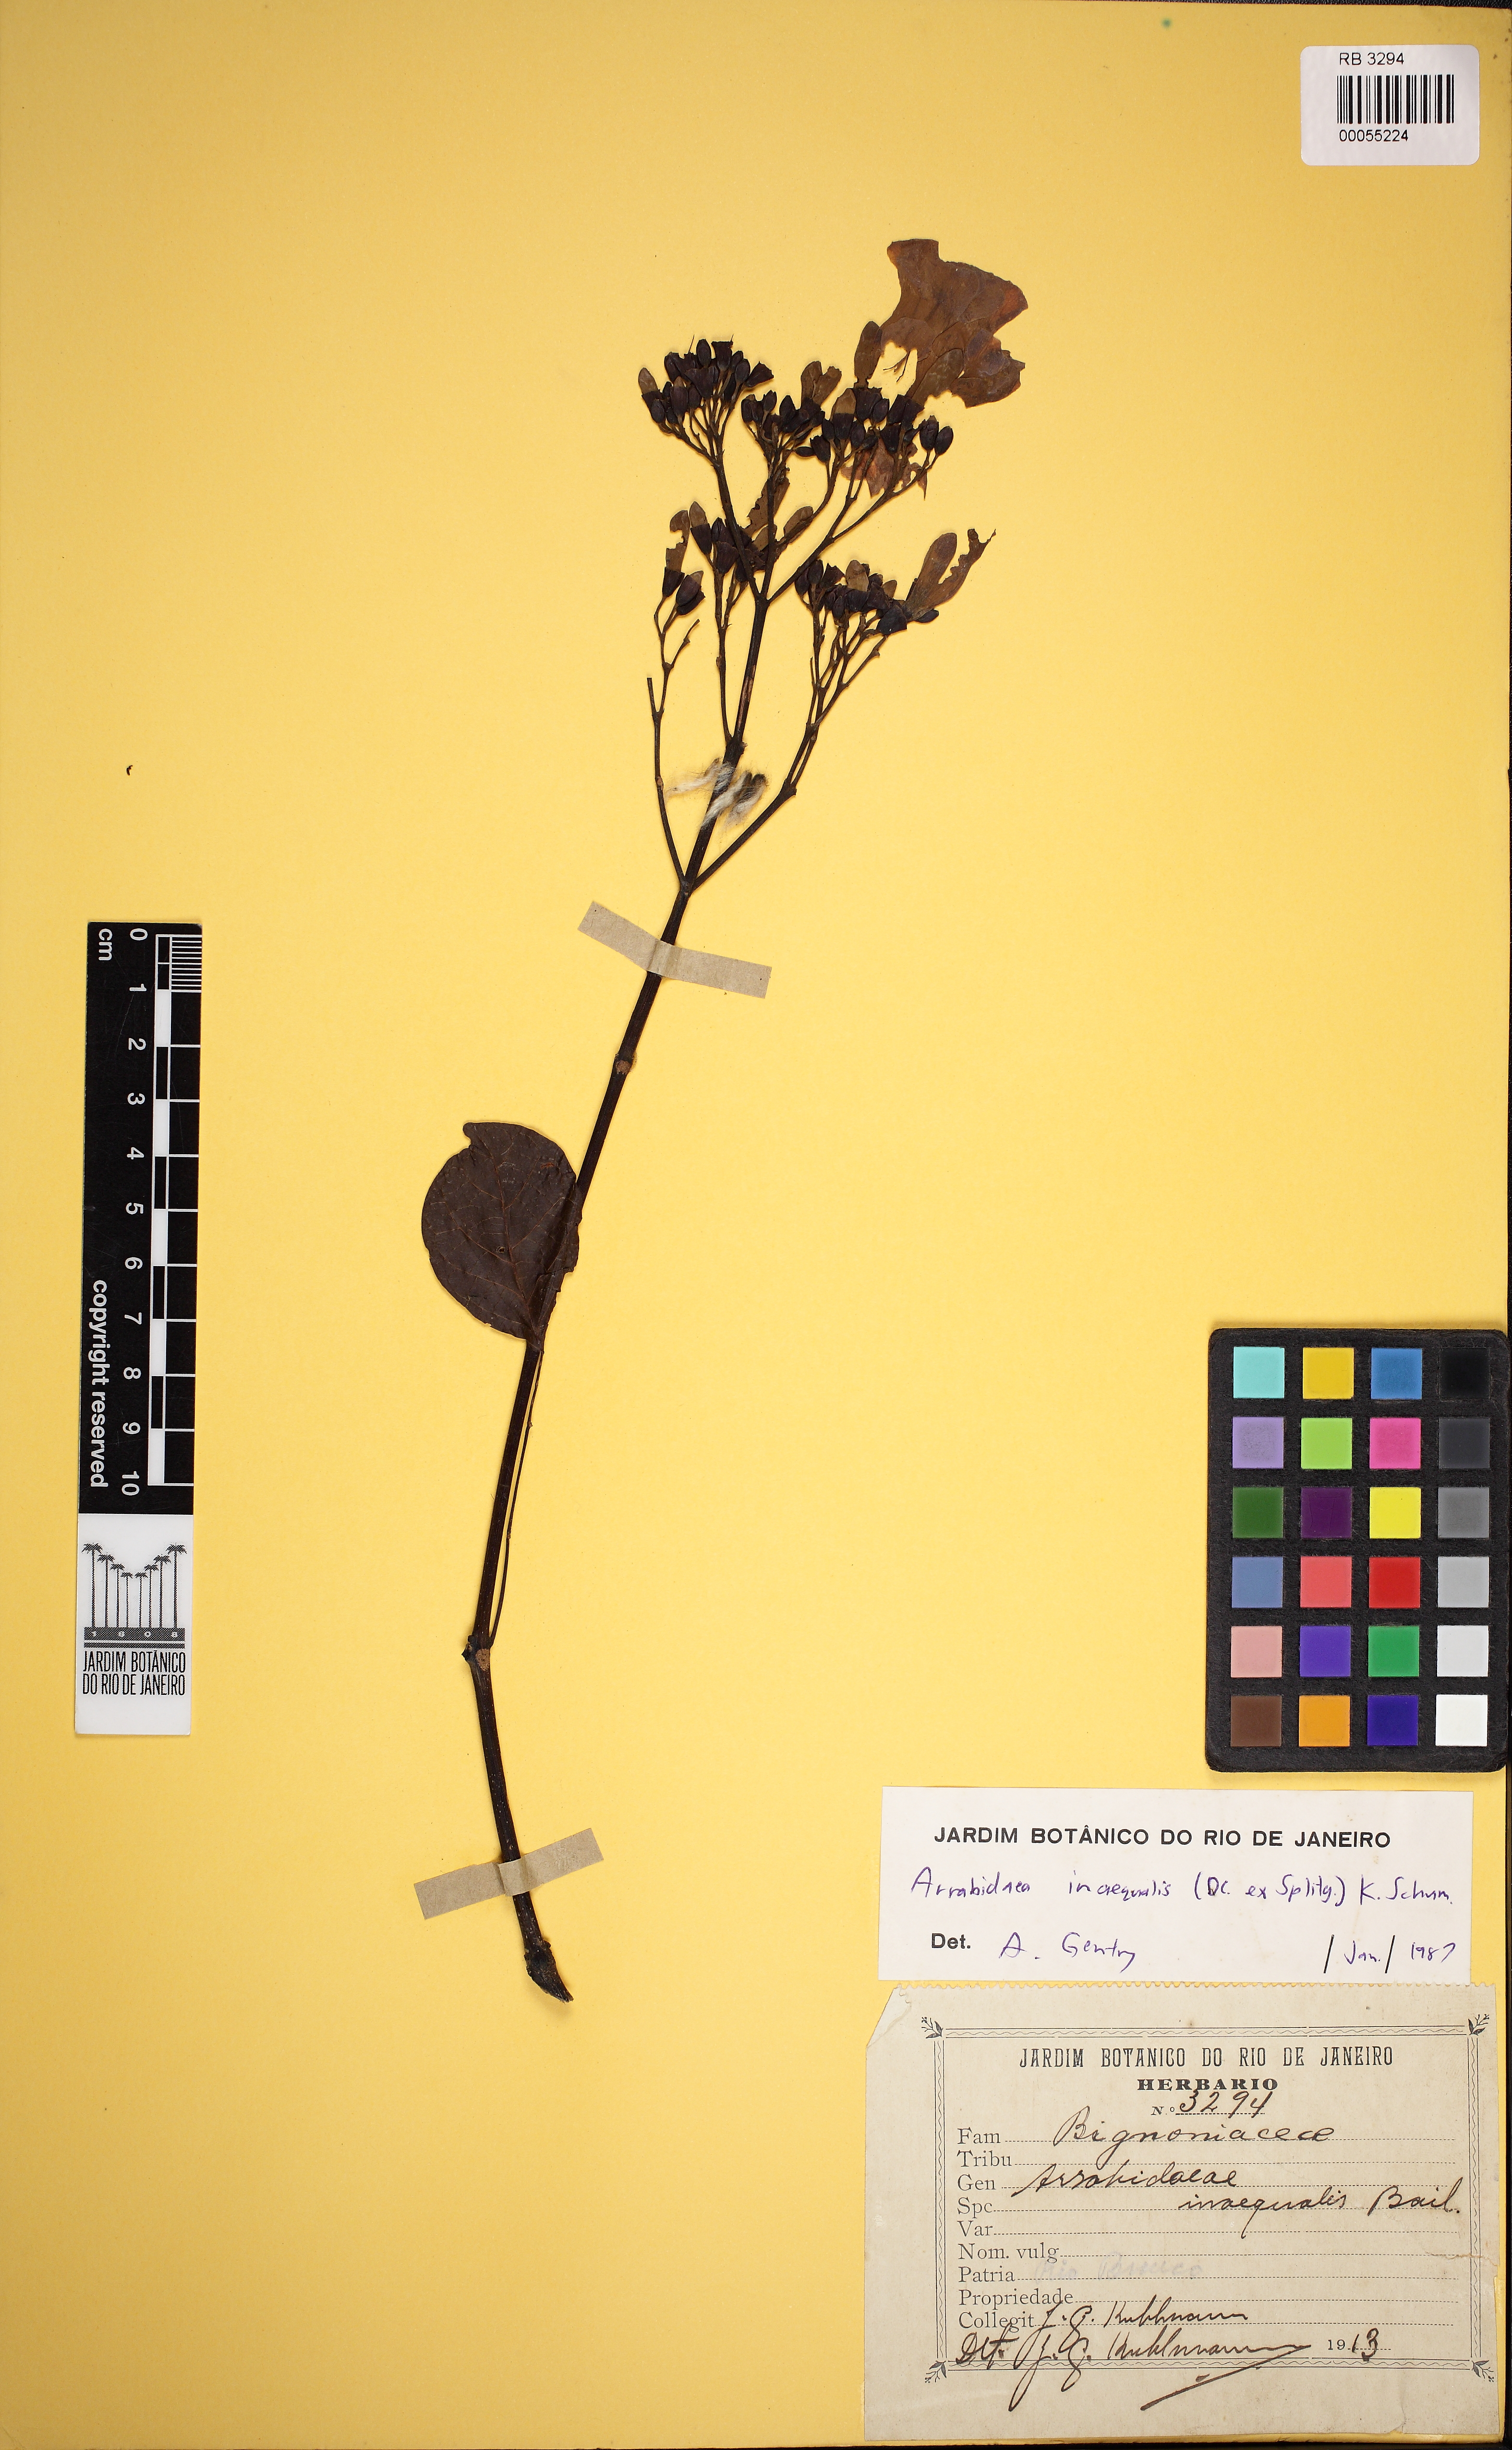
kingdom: Plantae
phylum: Tracheophyta
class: Magnoliopsida
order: Lamiales
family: Bignoniaceae
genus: Cuspidaria
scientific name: Cuspidaria inaequalis
